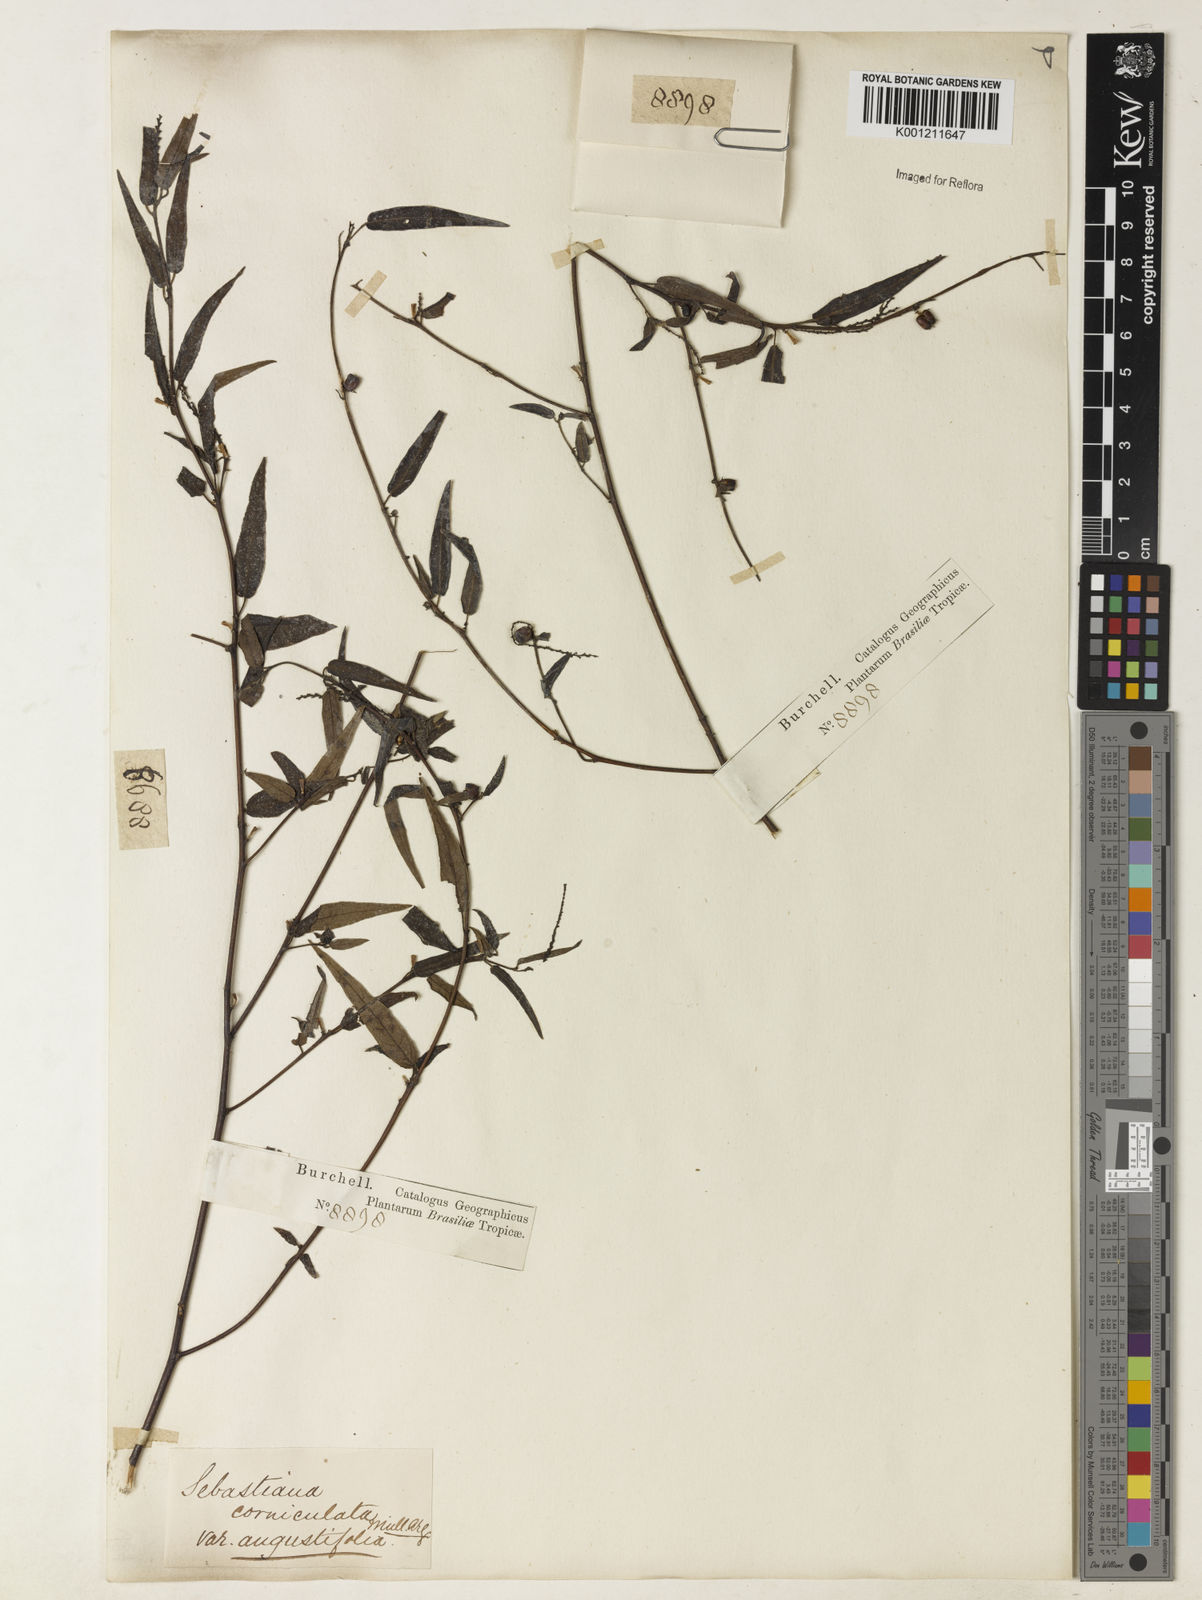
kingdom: Plantae
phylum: Tracheophyta
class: Magnoliopsida
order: Malpighiales
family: Euphorbiaceae
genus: Microstachys
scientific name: Microstachys
